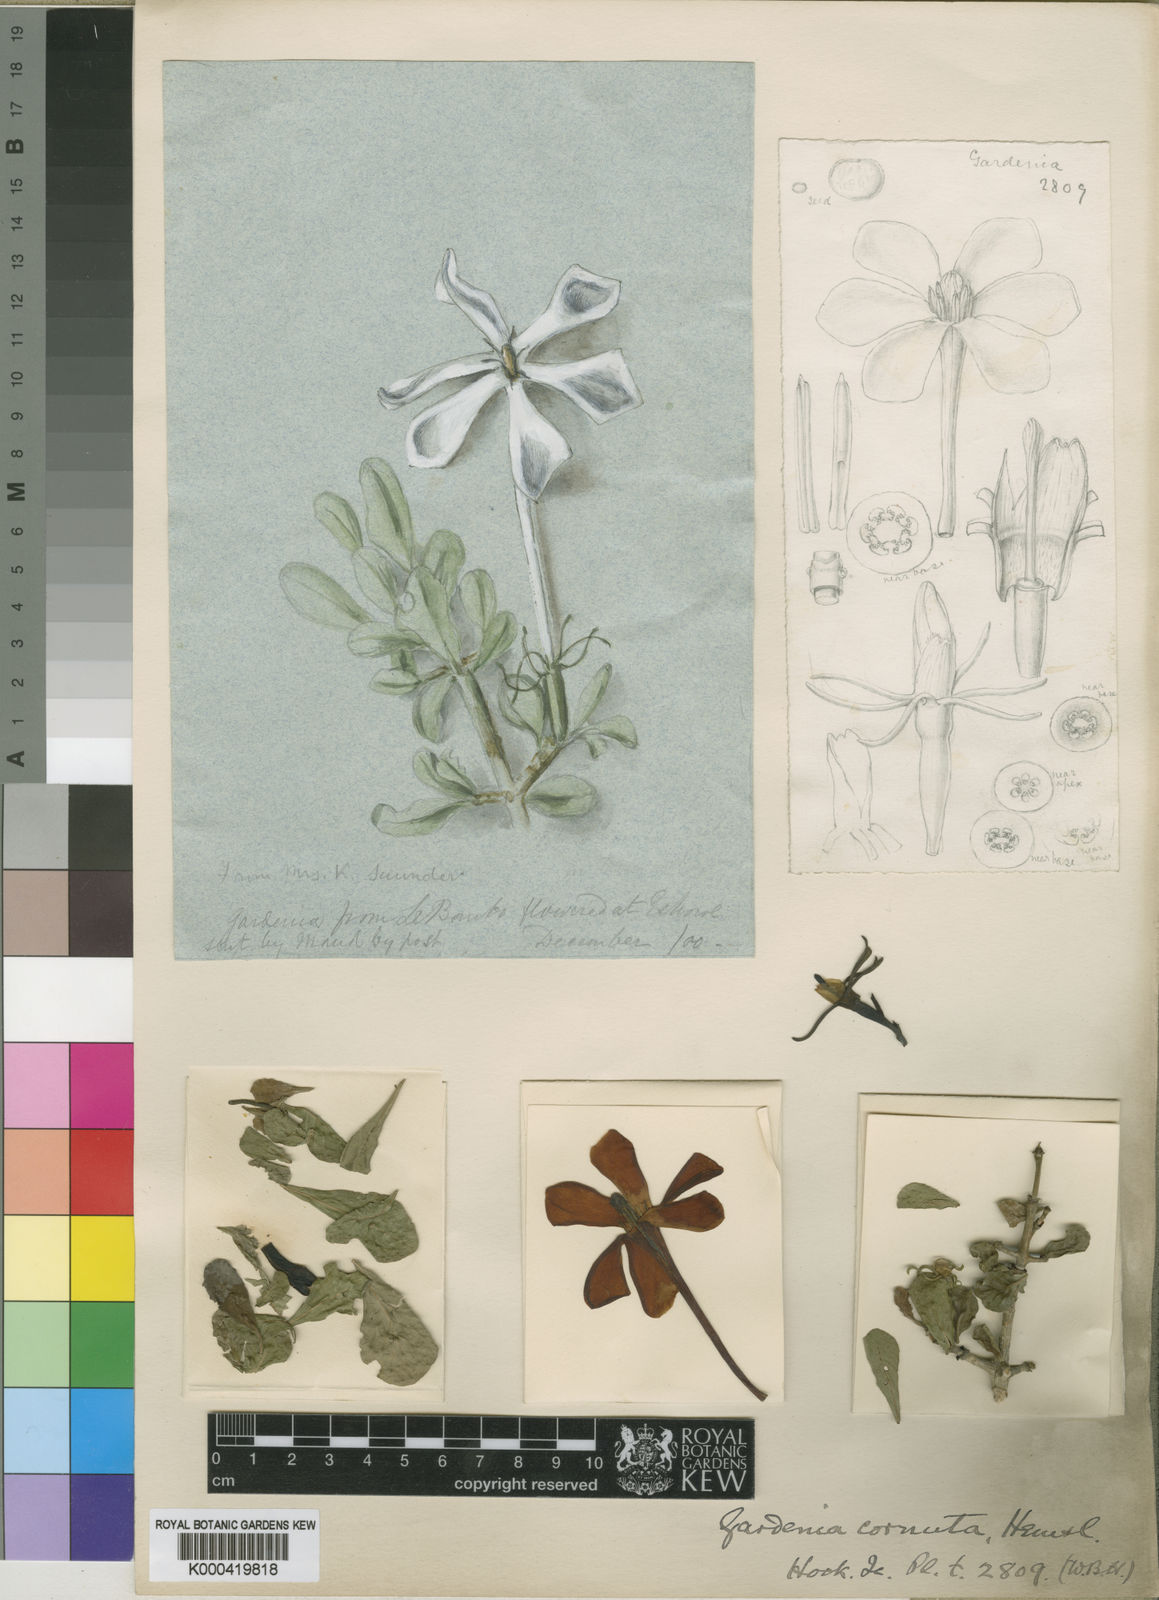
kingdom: Plantae
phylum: Tracheophyta
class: Magnoliopsida
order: Gentianales
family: Rubiaceae
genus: Gardenia
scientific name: Gardenia cornuta
